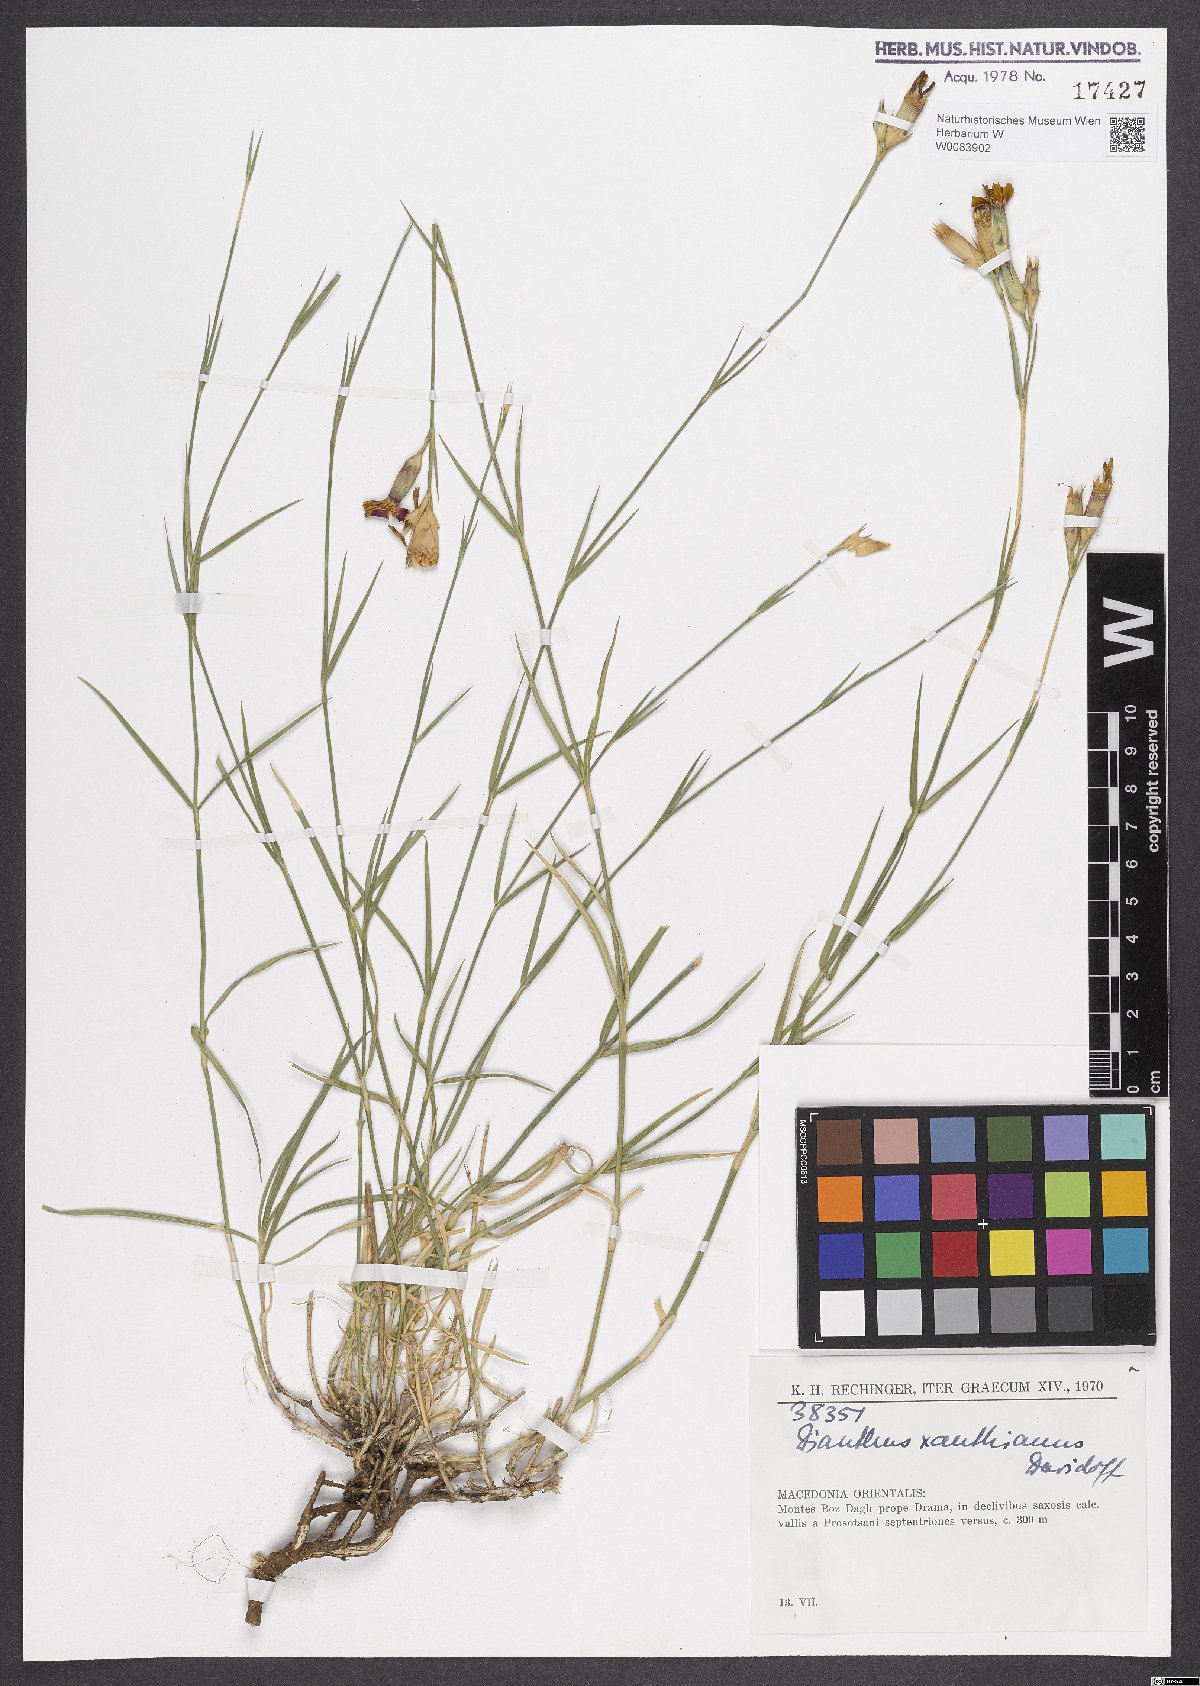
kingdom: Plantae
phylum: Tracheophyta
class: Magnoliopsida
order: Caryophyllales
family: Caryophyllaceae
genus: Dianthus
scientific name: Dianthus gracilis
